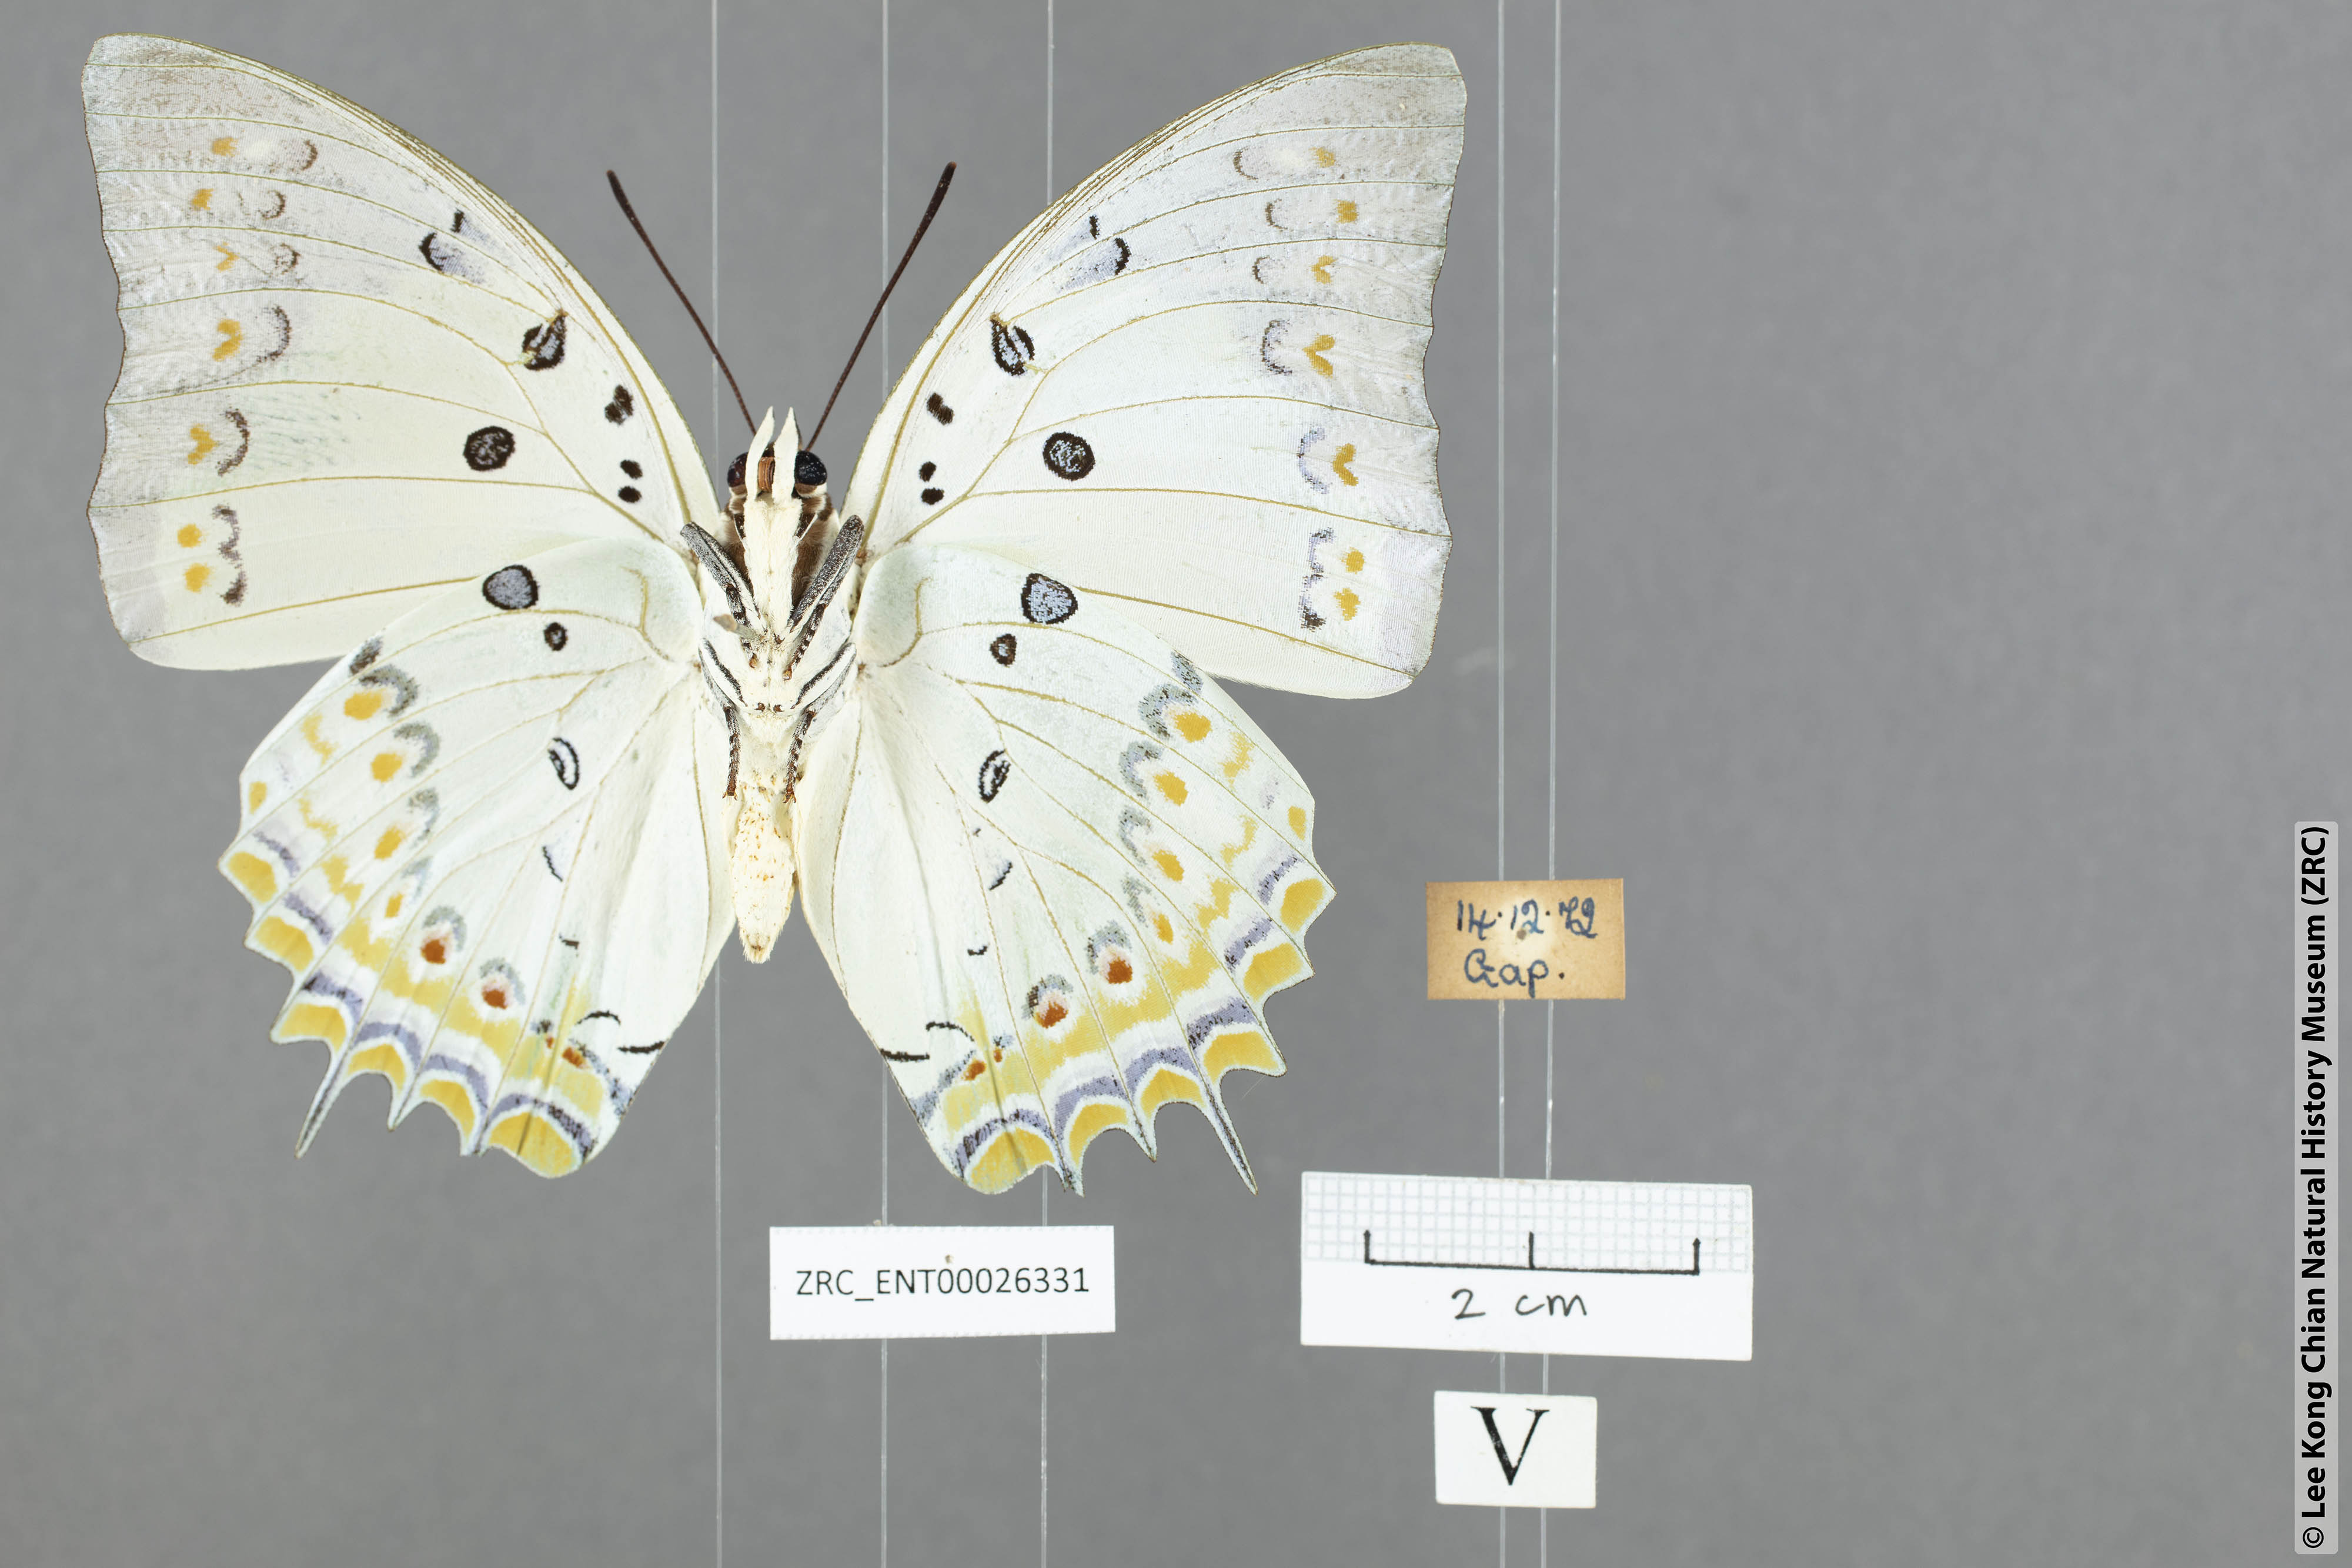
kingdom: Animalia
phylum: Arthropoda
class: Insecta
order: Lepidoptera
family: Nymphalidae
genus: Polyura
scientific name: Polyura delphis
